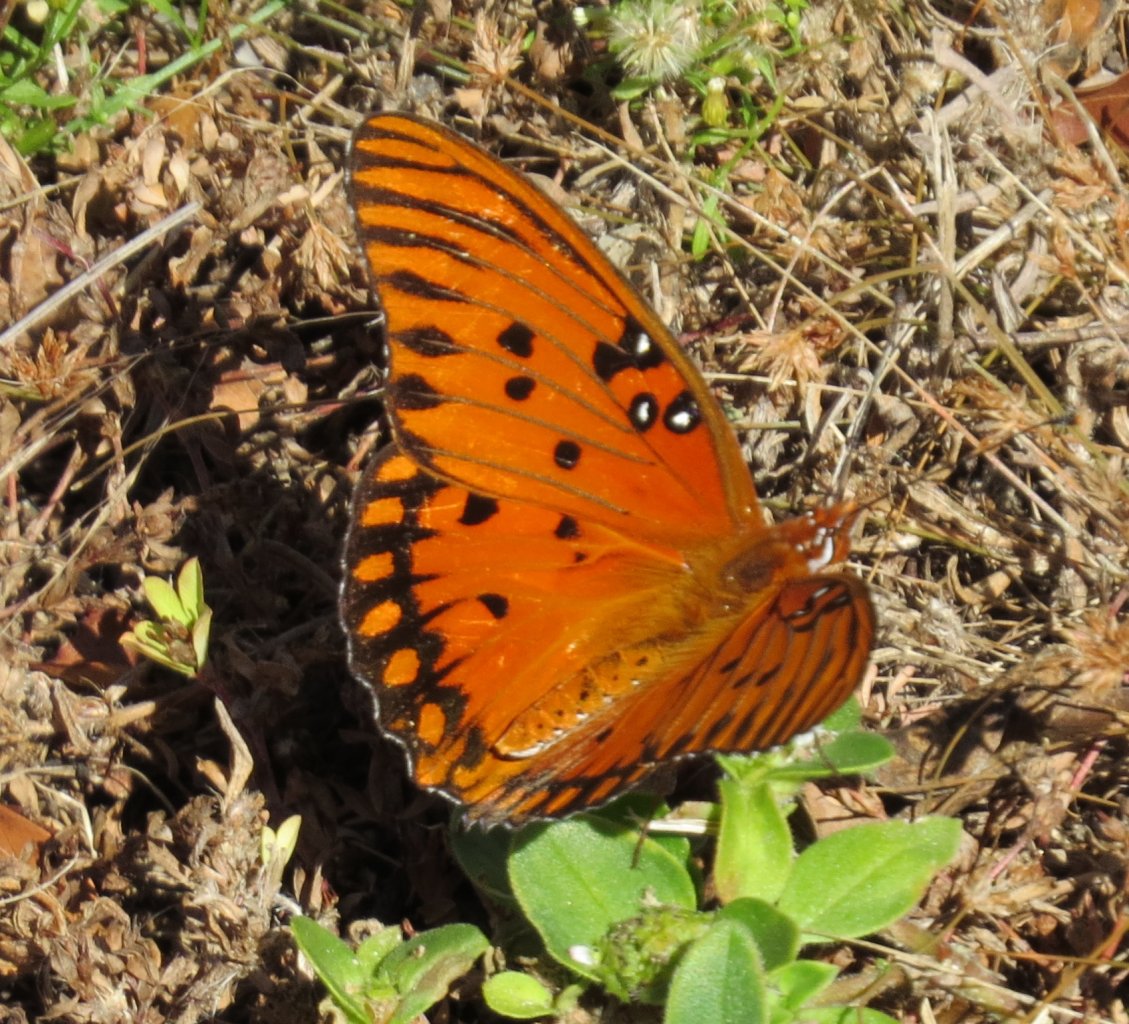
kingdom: Animalia
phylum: Arthropoda
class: Insecta
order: Lepidoptera
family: Nymphalidae
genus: Dione
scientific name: Dione vanillae
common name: Gulf Fritillary
